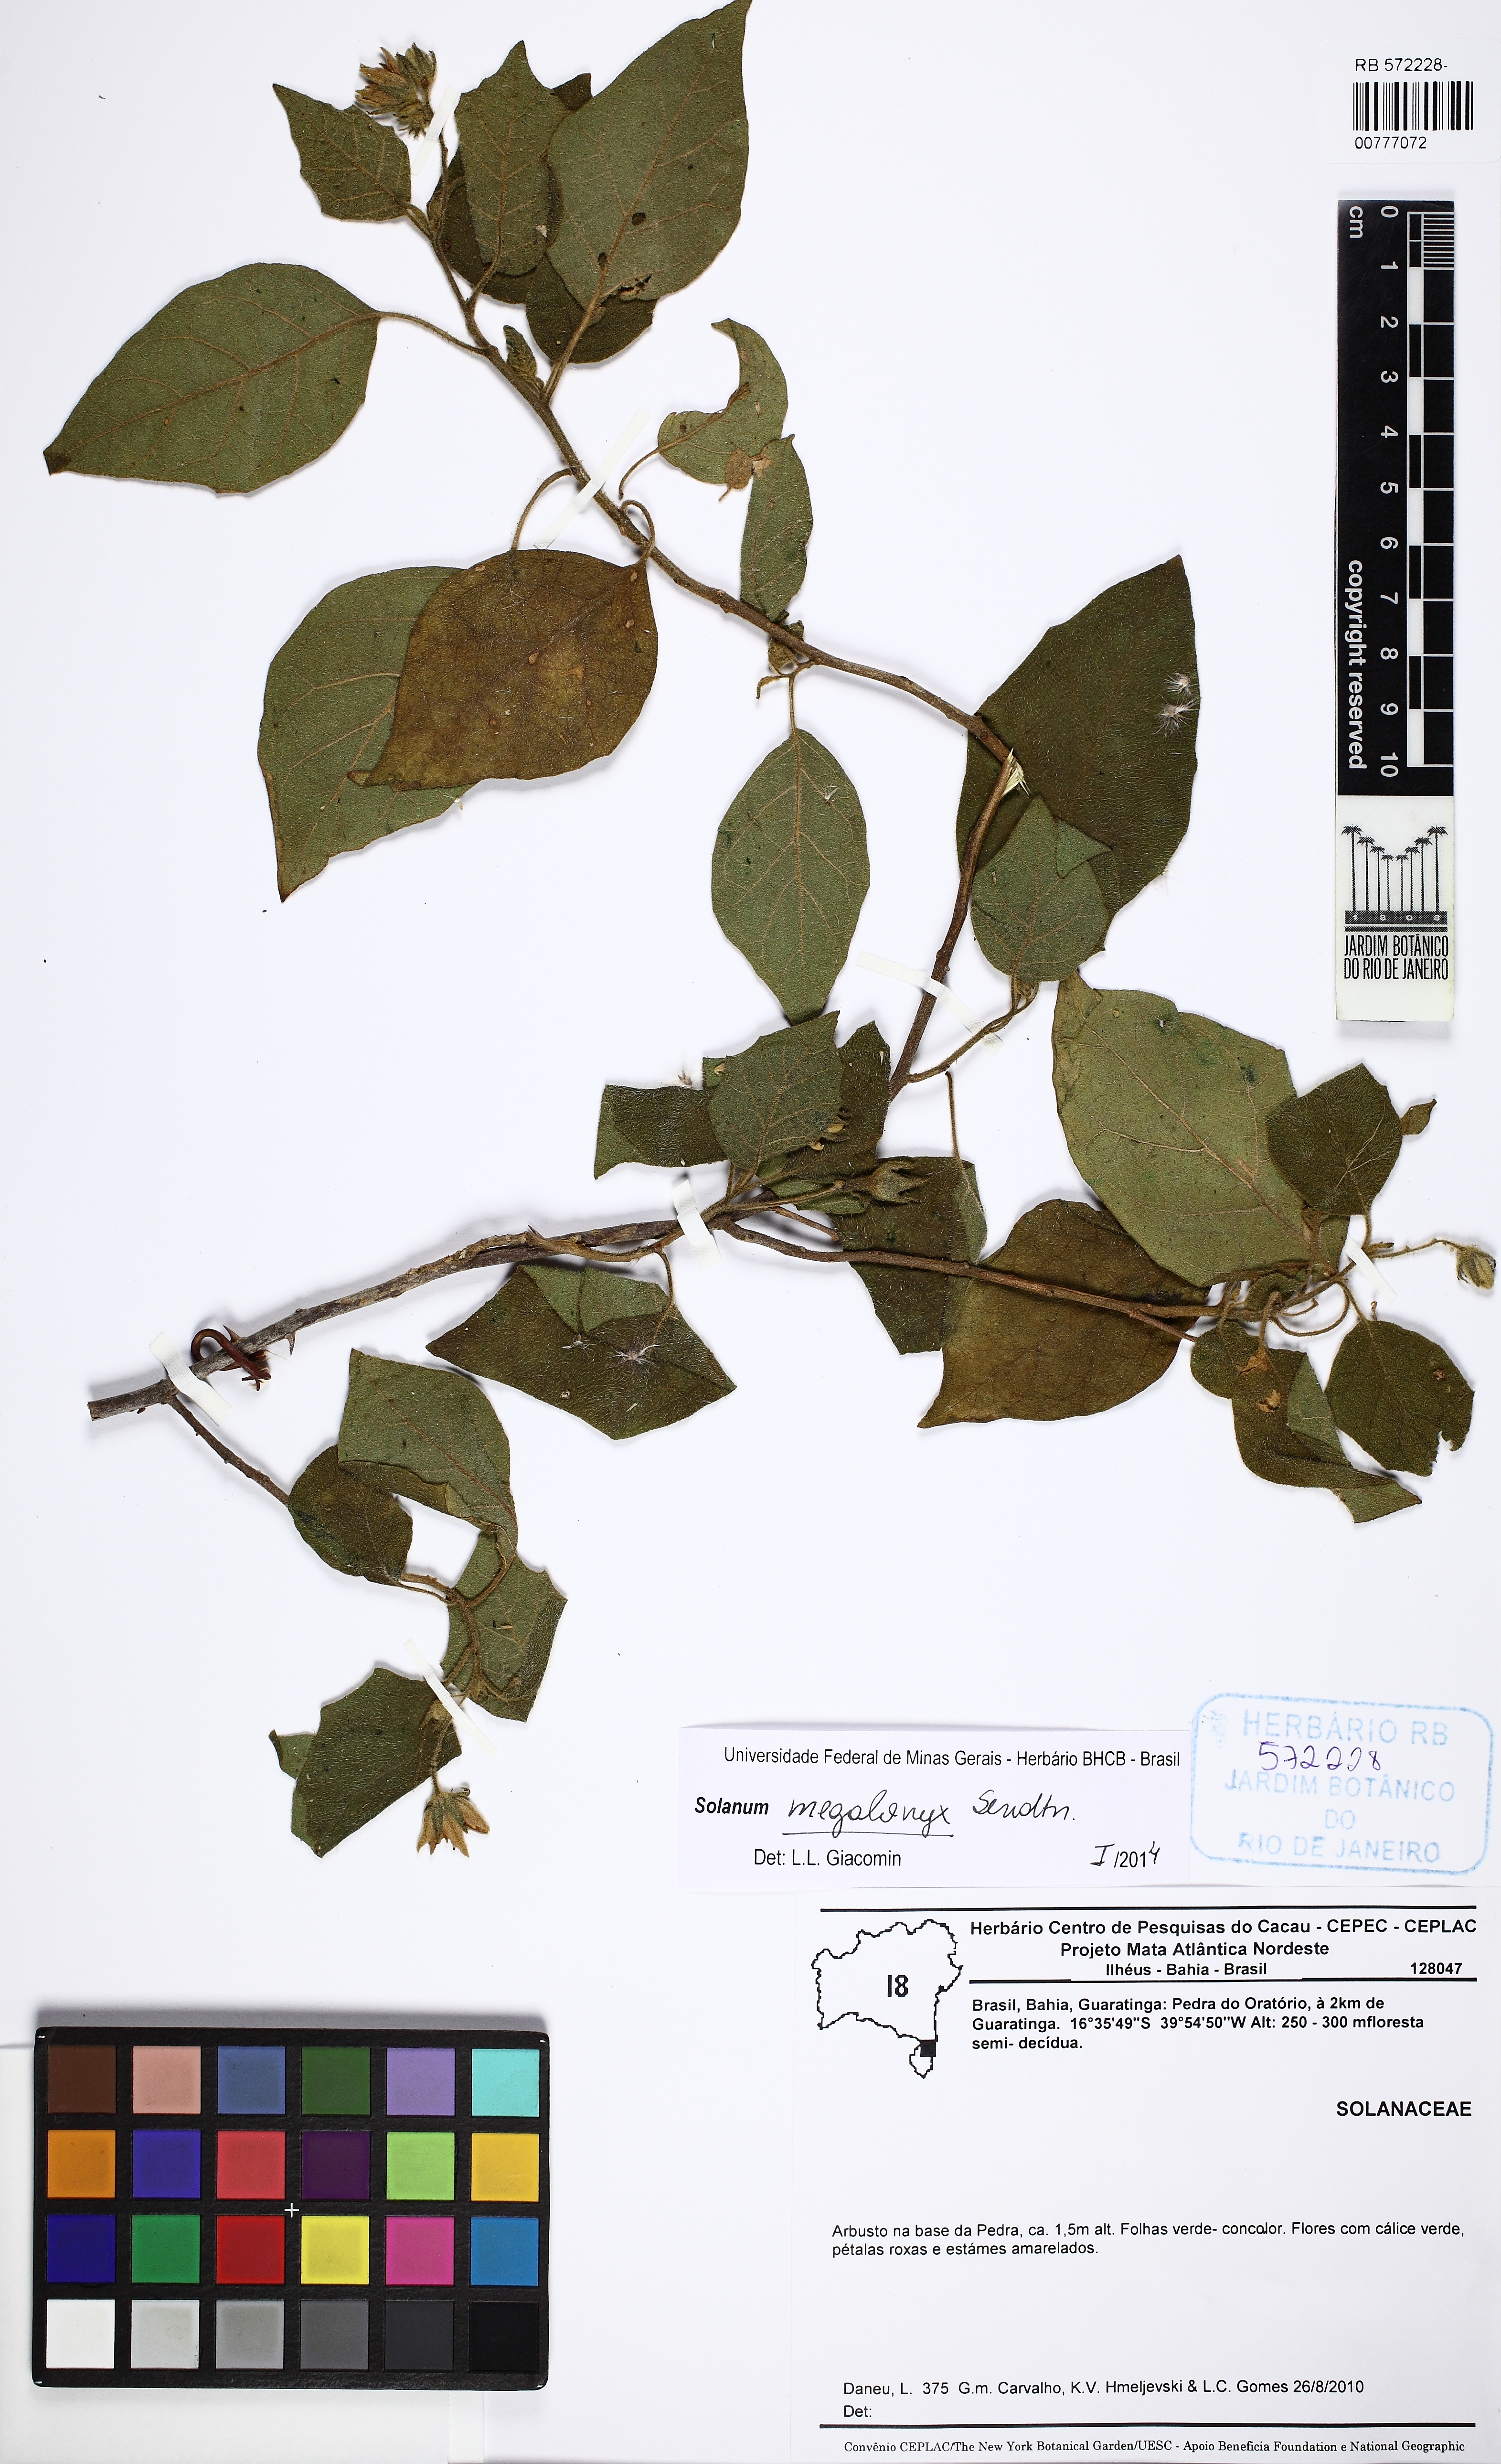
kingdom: Plantae
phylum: Tracheophyta
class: Magnoliopsida
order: Solanales
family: Solanaceae
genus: Solanum
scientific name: Solanum megalonyx
